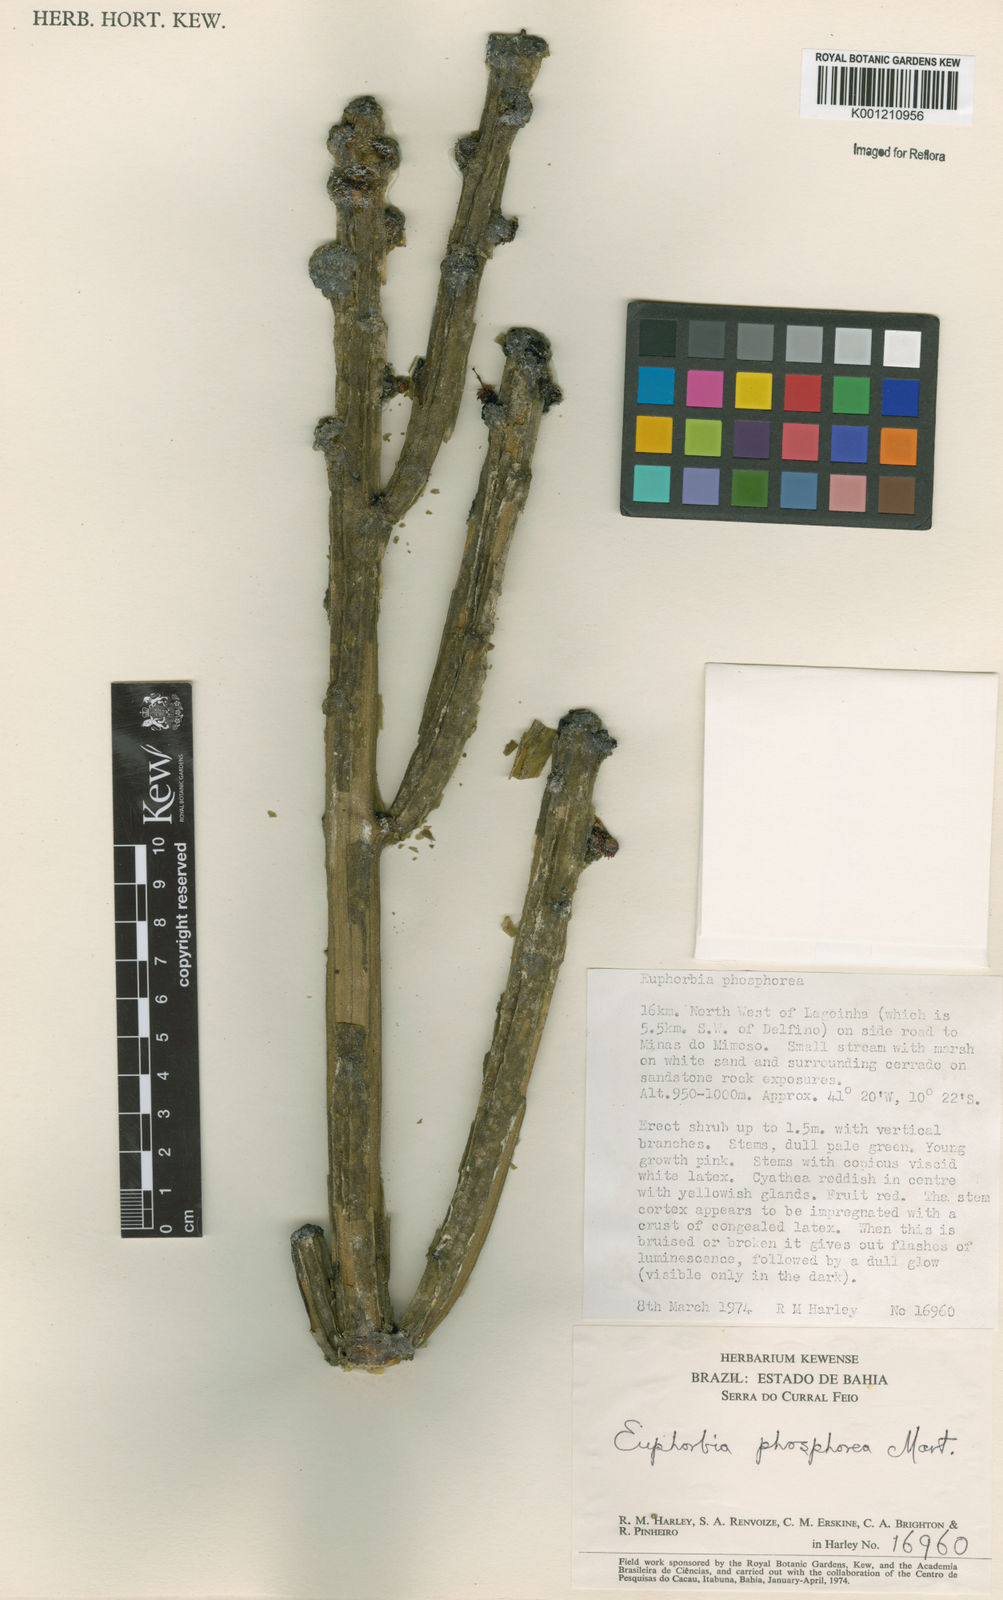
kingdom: Plantae
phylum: Tracheophyta
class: Magnoliopsida
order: Malpighiales
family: Euphorbiaceae
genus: Euphorbia
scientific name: Euphorbia phosphorea
